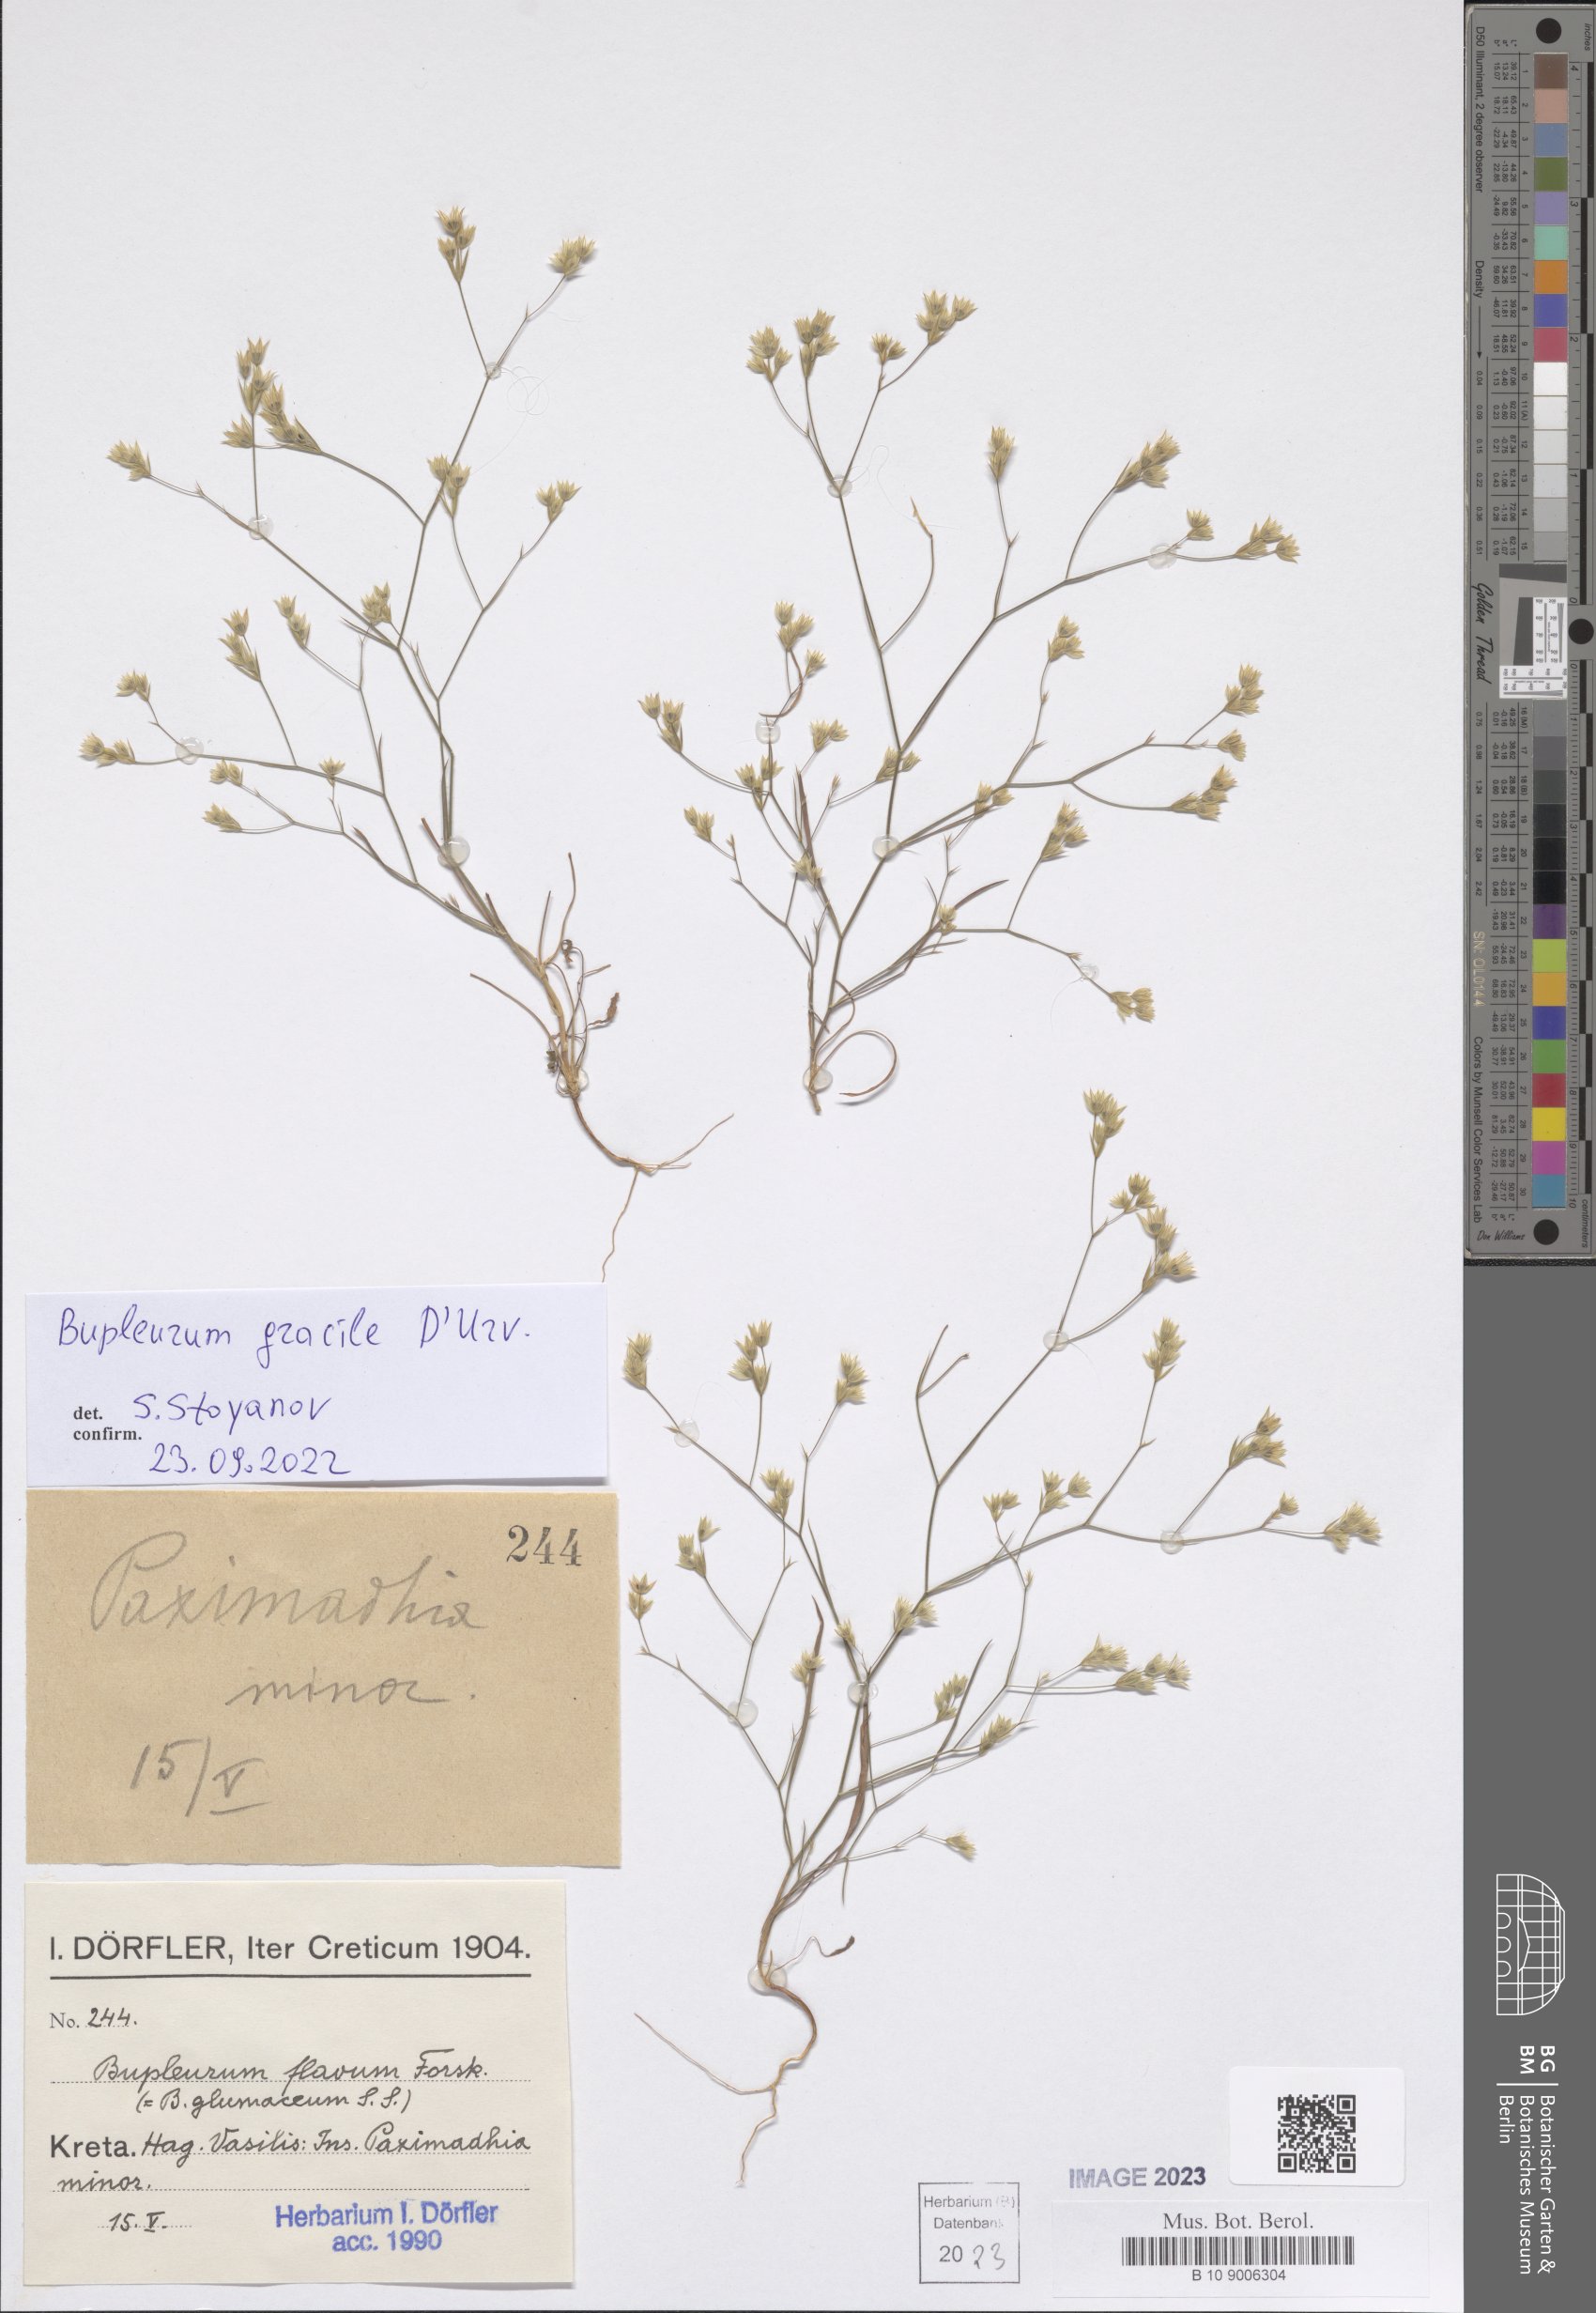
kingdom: Plantae
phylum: Tracheophyta
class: Magnoliopsida
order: Apiales
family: Apiaceae
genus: Bupleurum
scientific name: Bupleurum gracile
